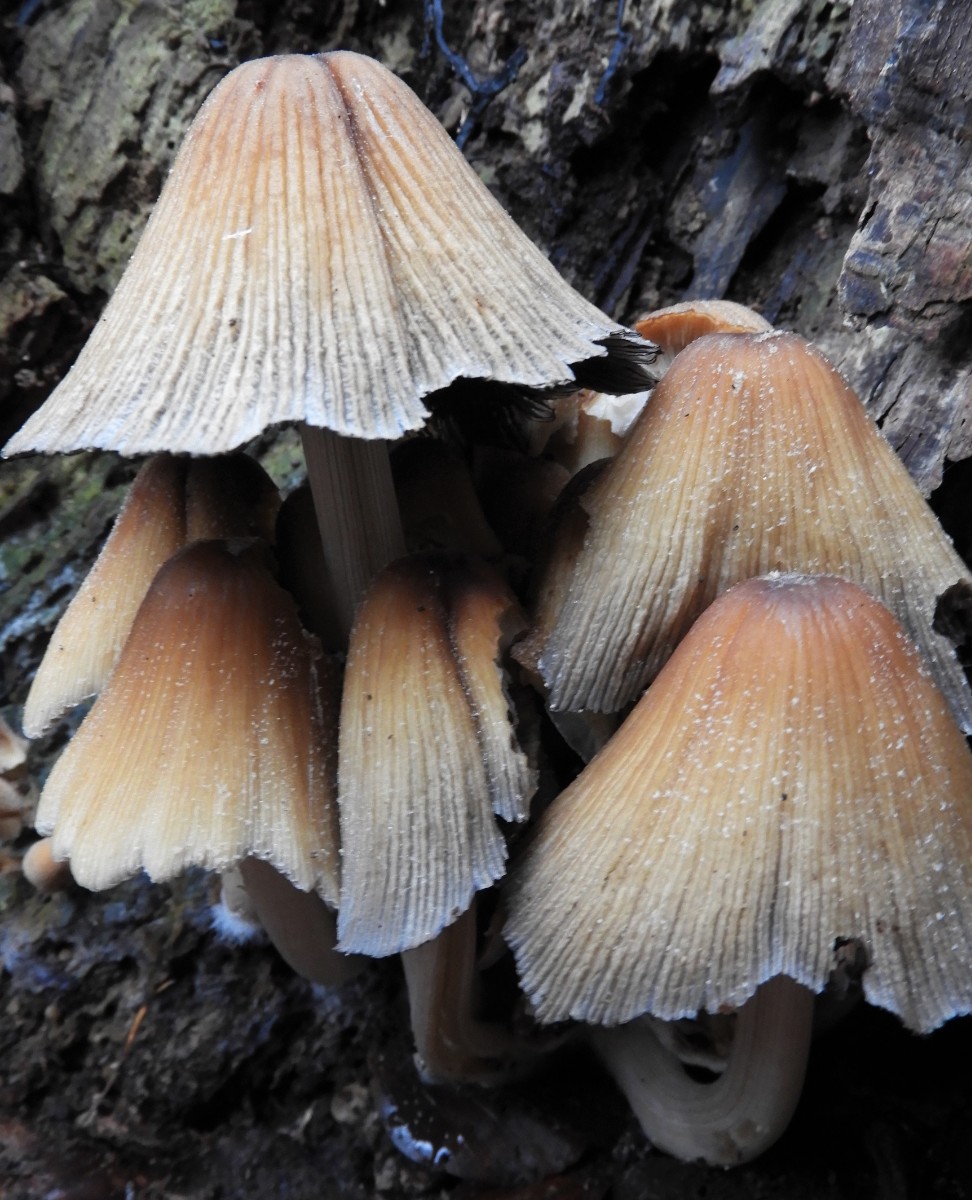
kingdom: Fungi
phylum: Basidiomycota
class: Agaricomycetes
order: Agaricales
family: Psathyrellaceae
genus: Coprinellus
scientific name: Coprinellus micaceus
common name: glimmer-blækhat
